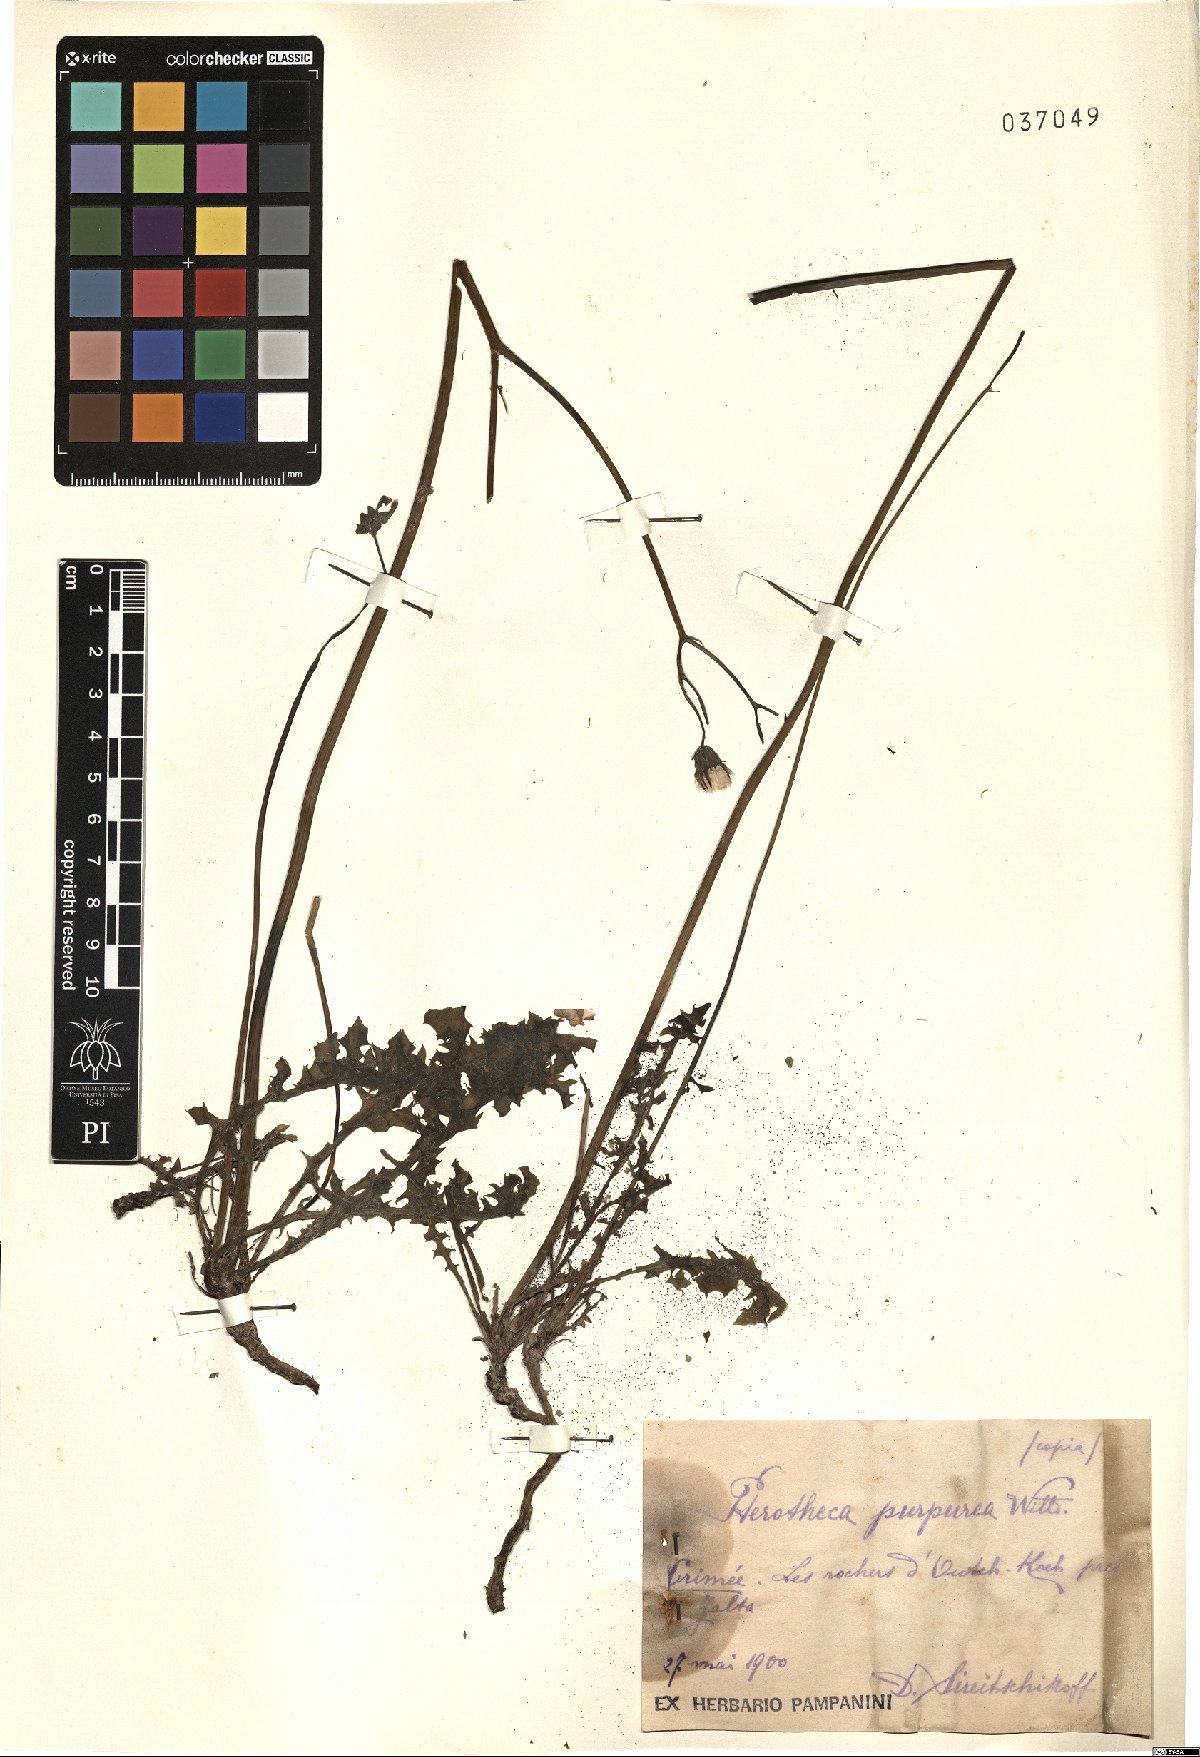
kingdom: Plantae
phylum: Tracheophyta
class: Magnoliopsida
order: Asterales
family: Asteraceae
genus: Crepis
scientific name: Crepis purpurea
